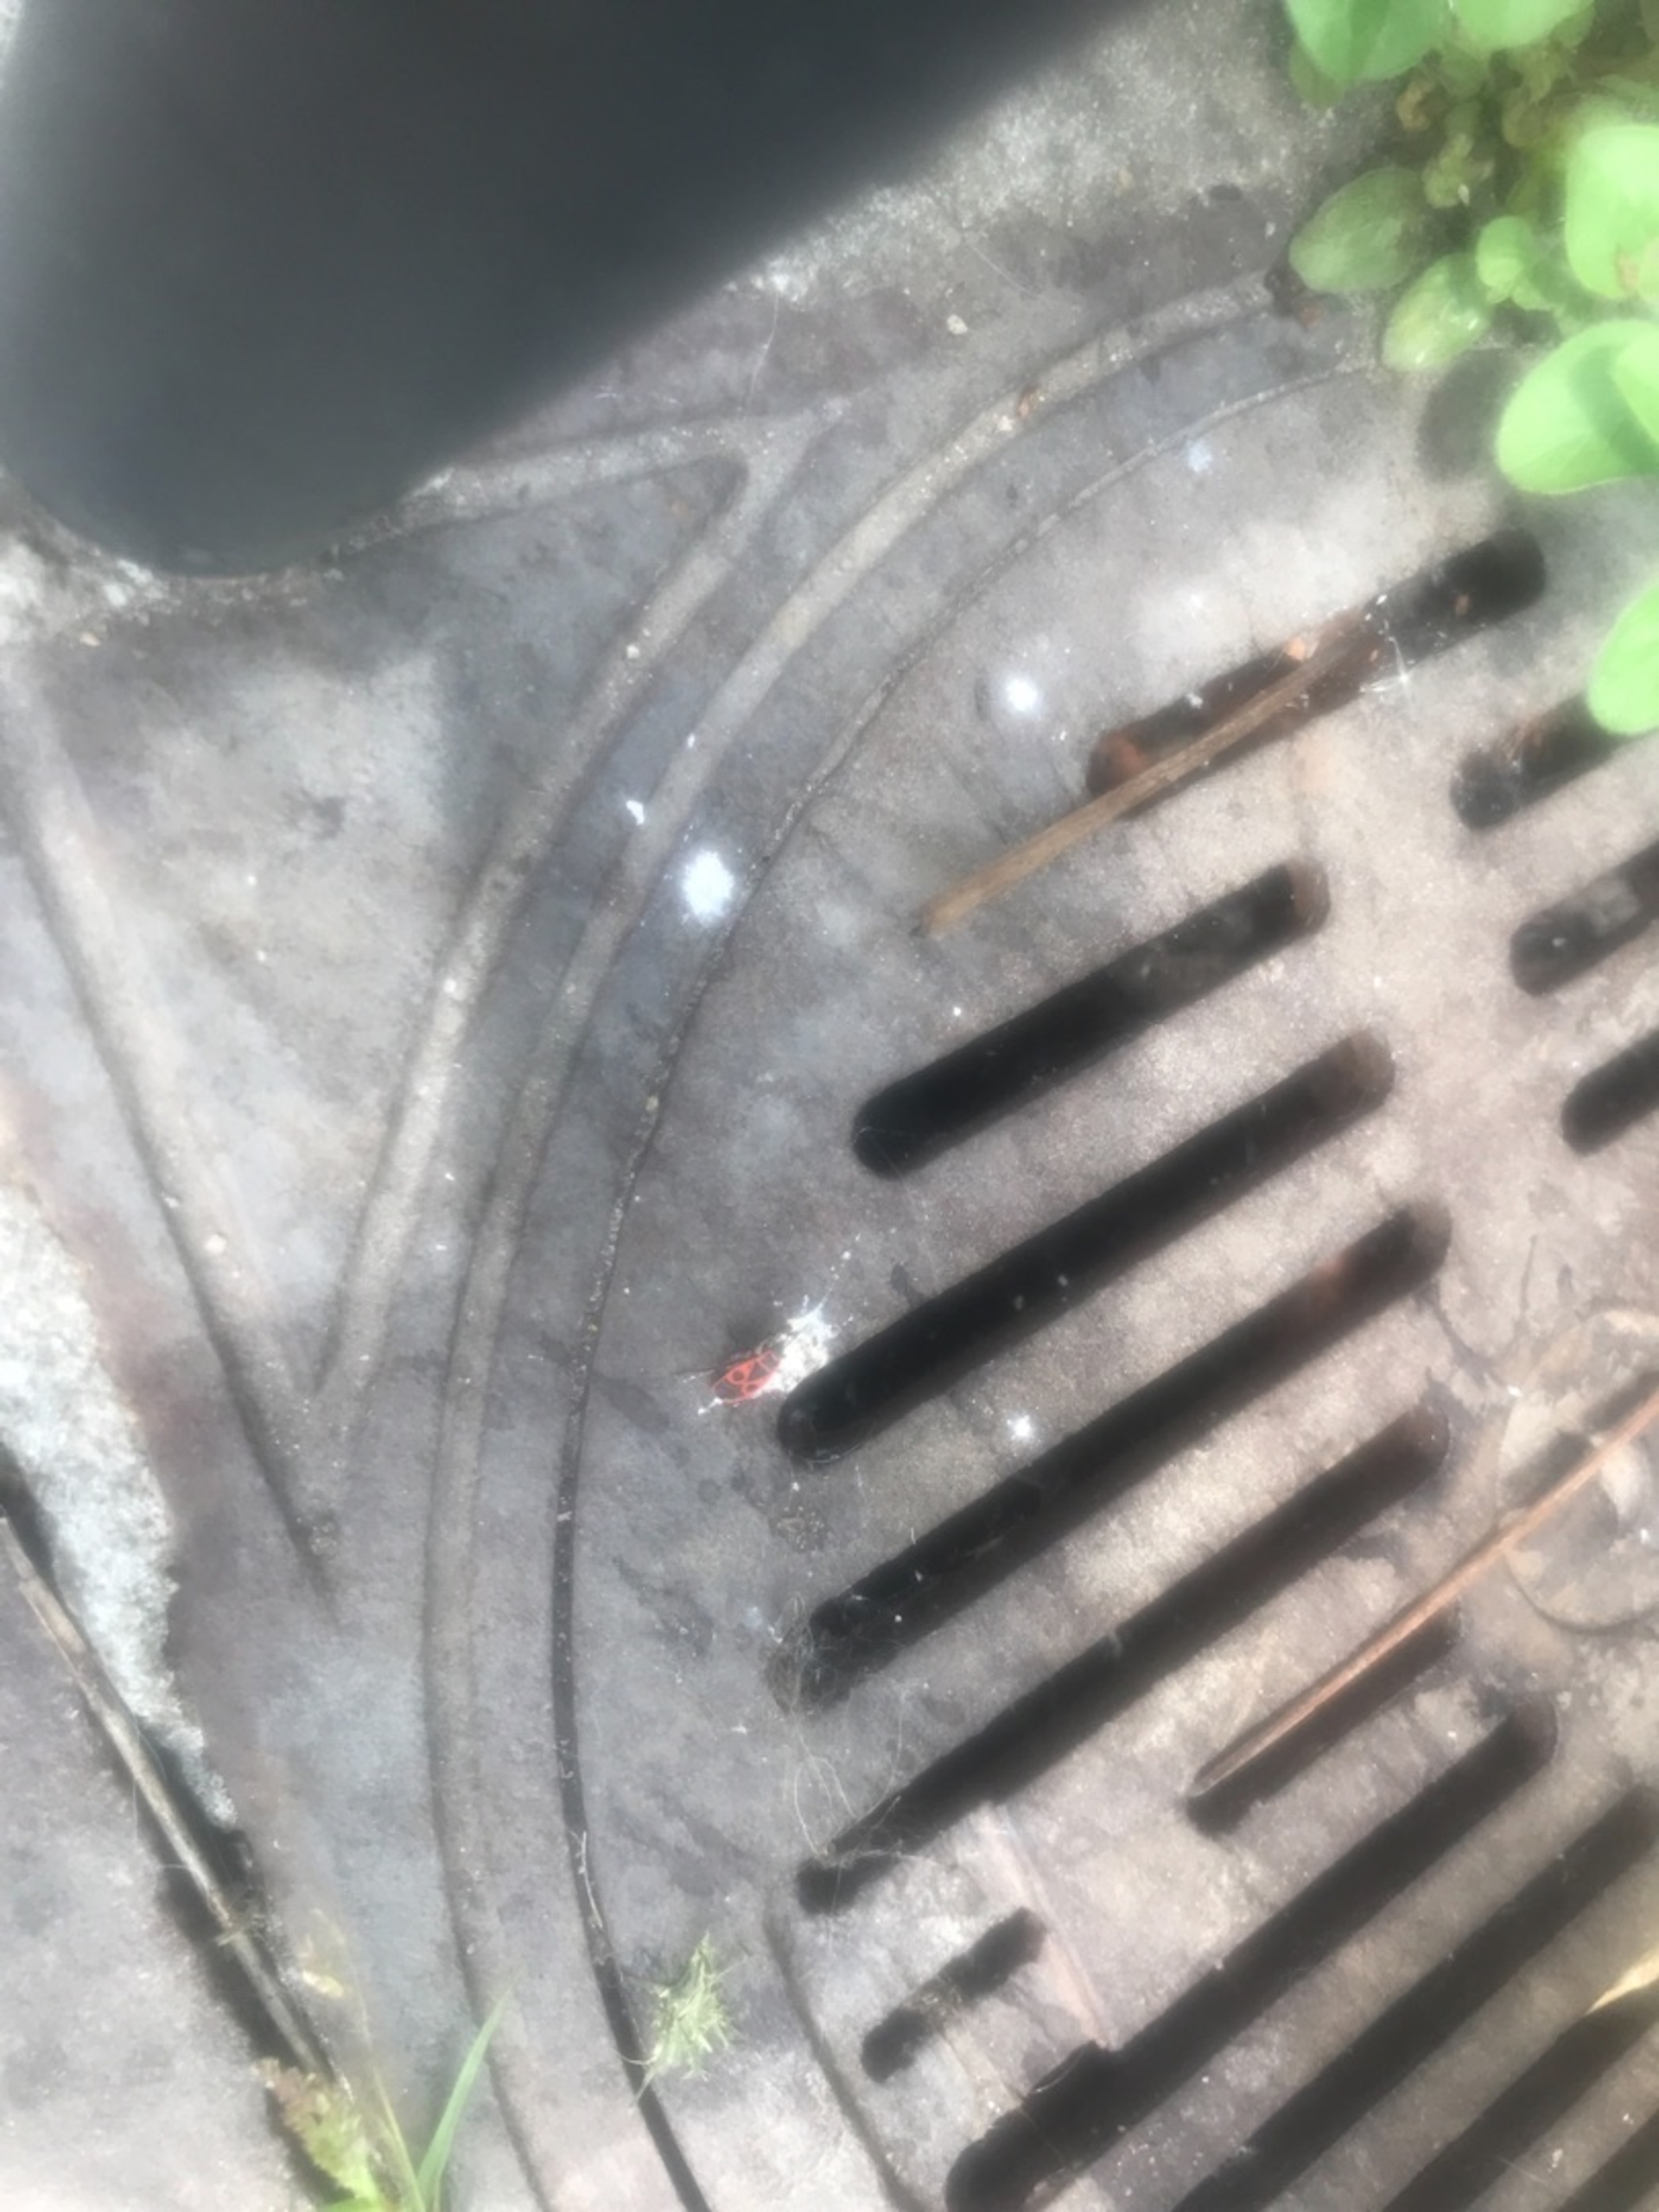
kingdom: Animalia
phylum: Arthropoda
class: Insecta
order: Hemiptera
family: Pyrrhocoridae
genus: Pyrrhocoris
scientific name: Pyrrhocoris apterus
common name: Ildtæge
